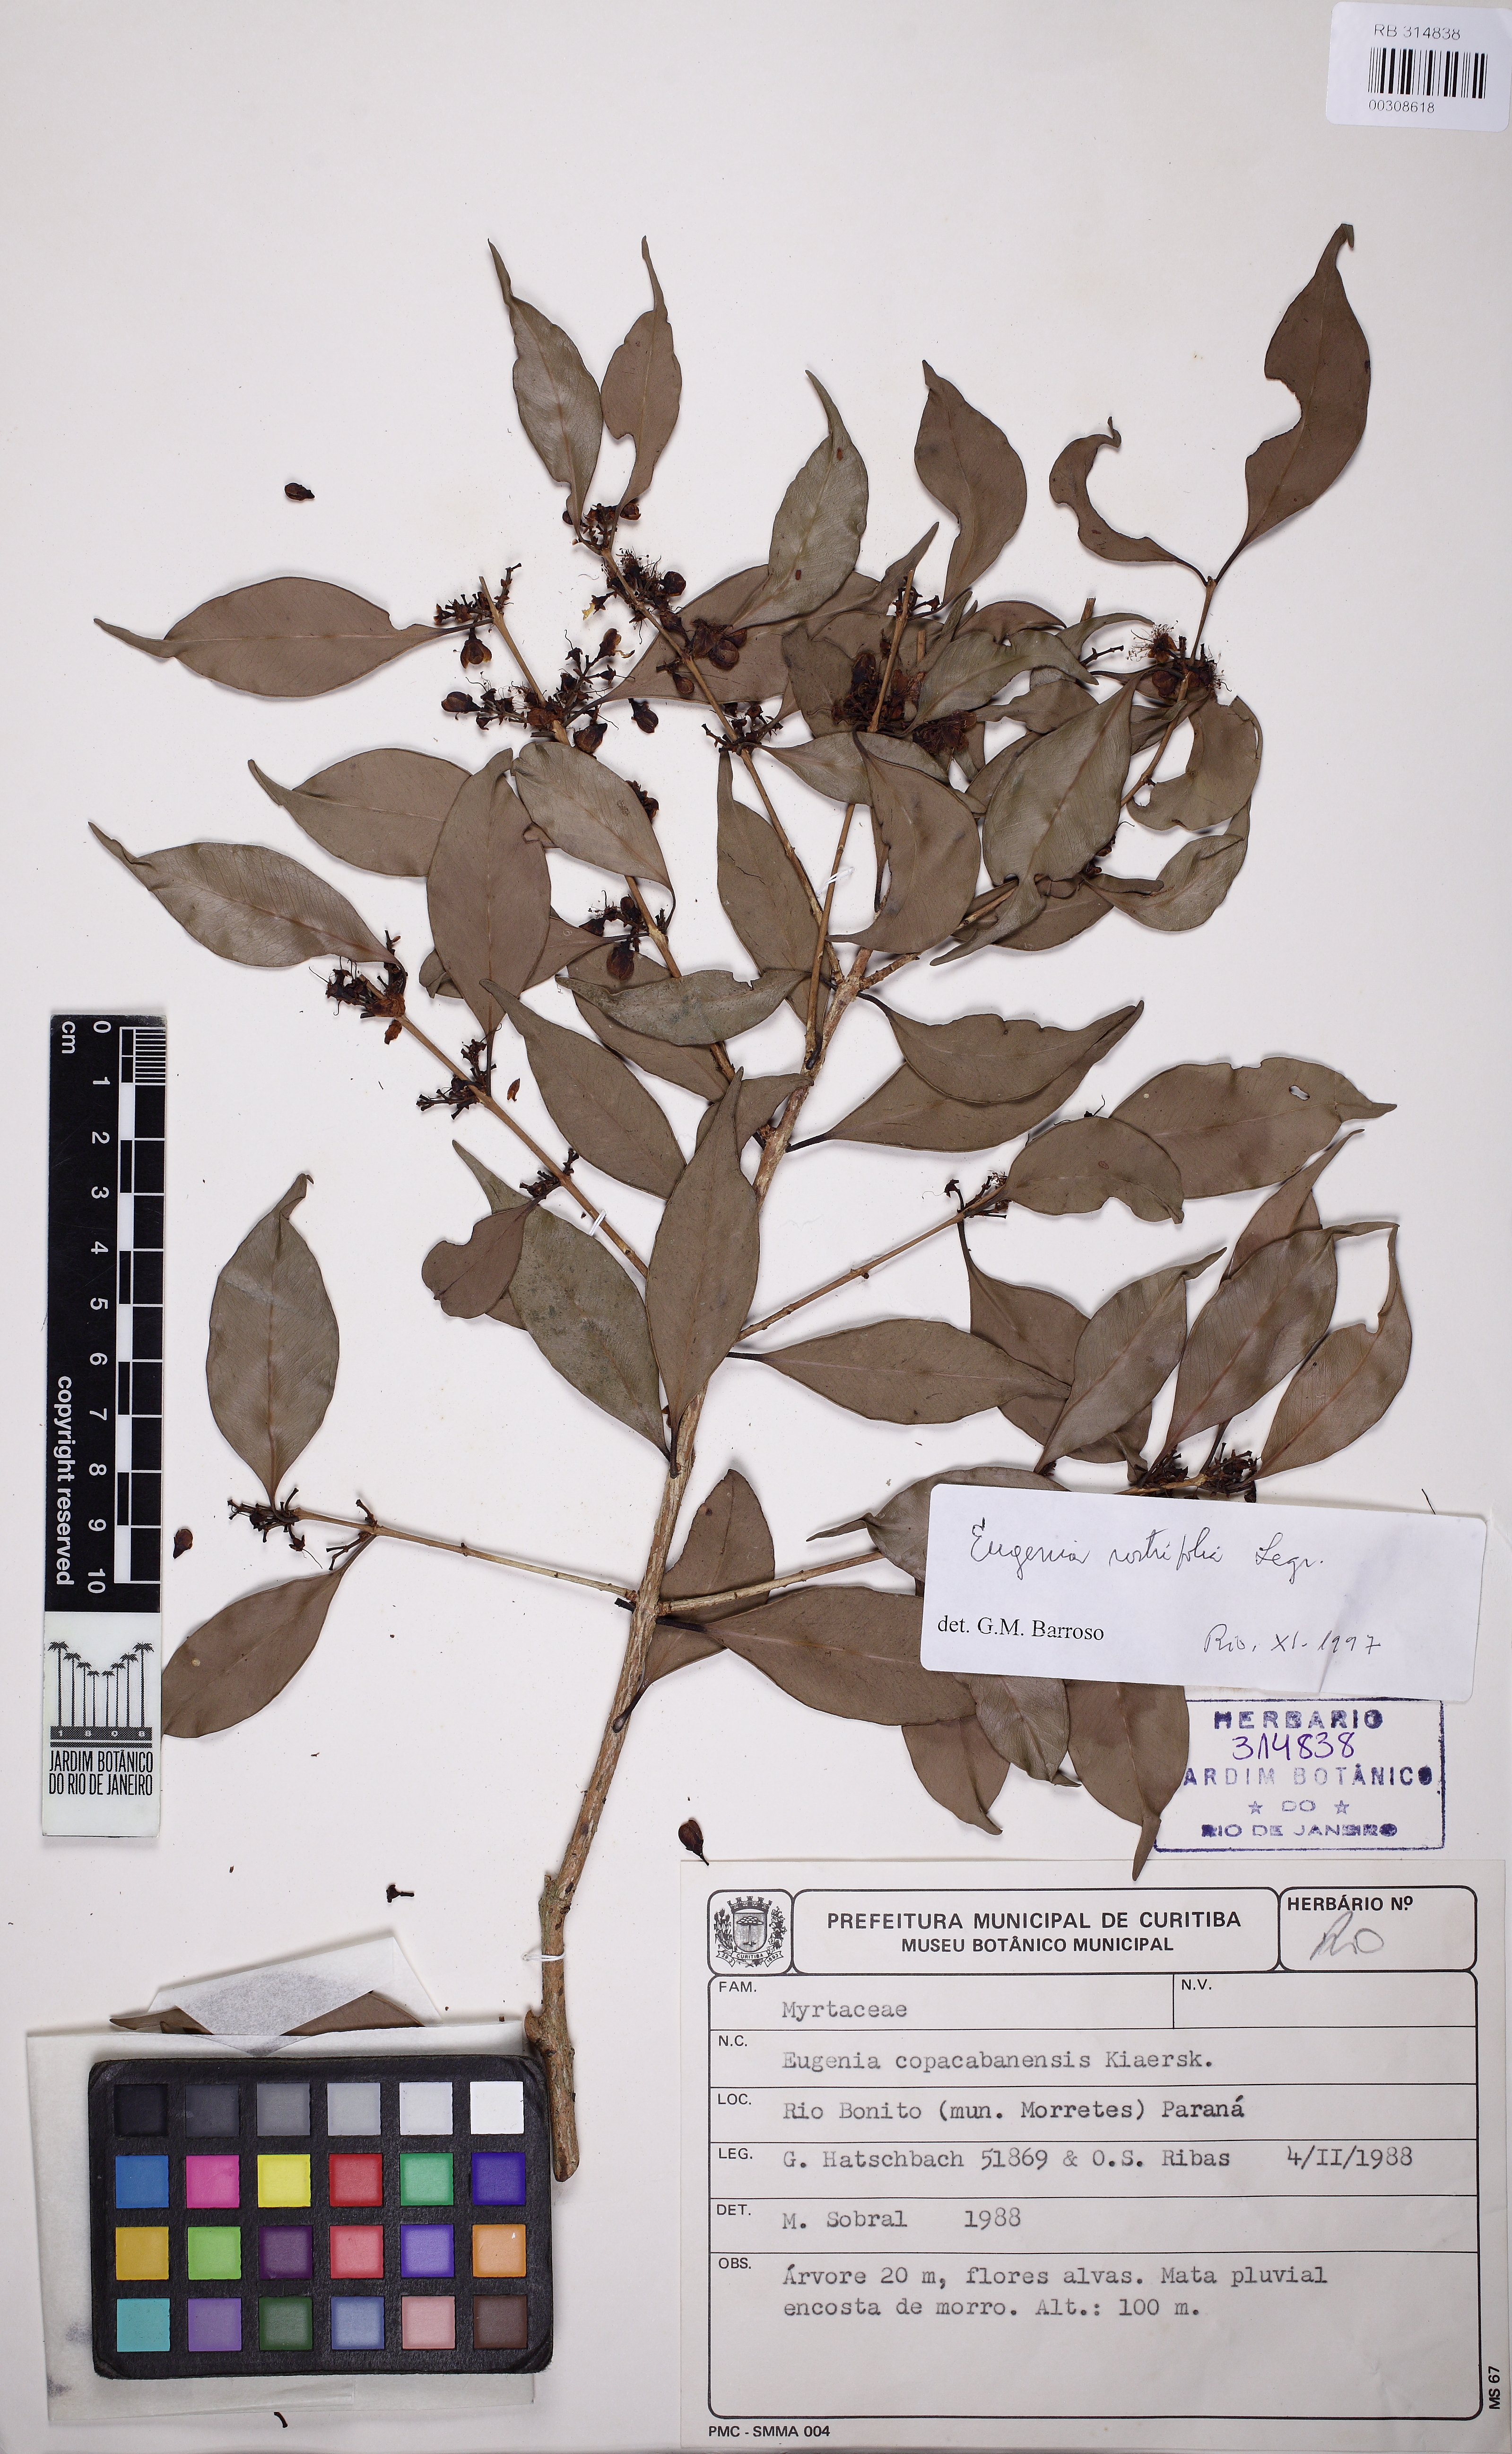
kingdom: Plantae
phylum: Tracheophyta
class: Magnoliopsida
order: Myrtales
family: Myrtaceae
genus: Eugenia
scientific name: Eugenia rostrifolia
